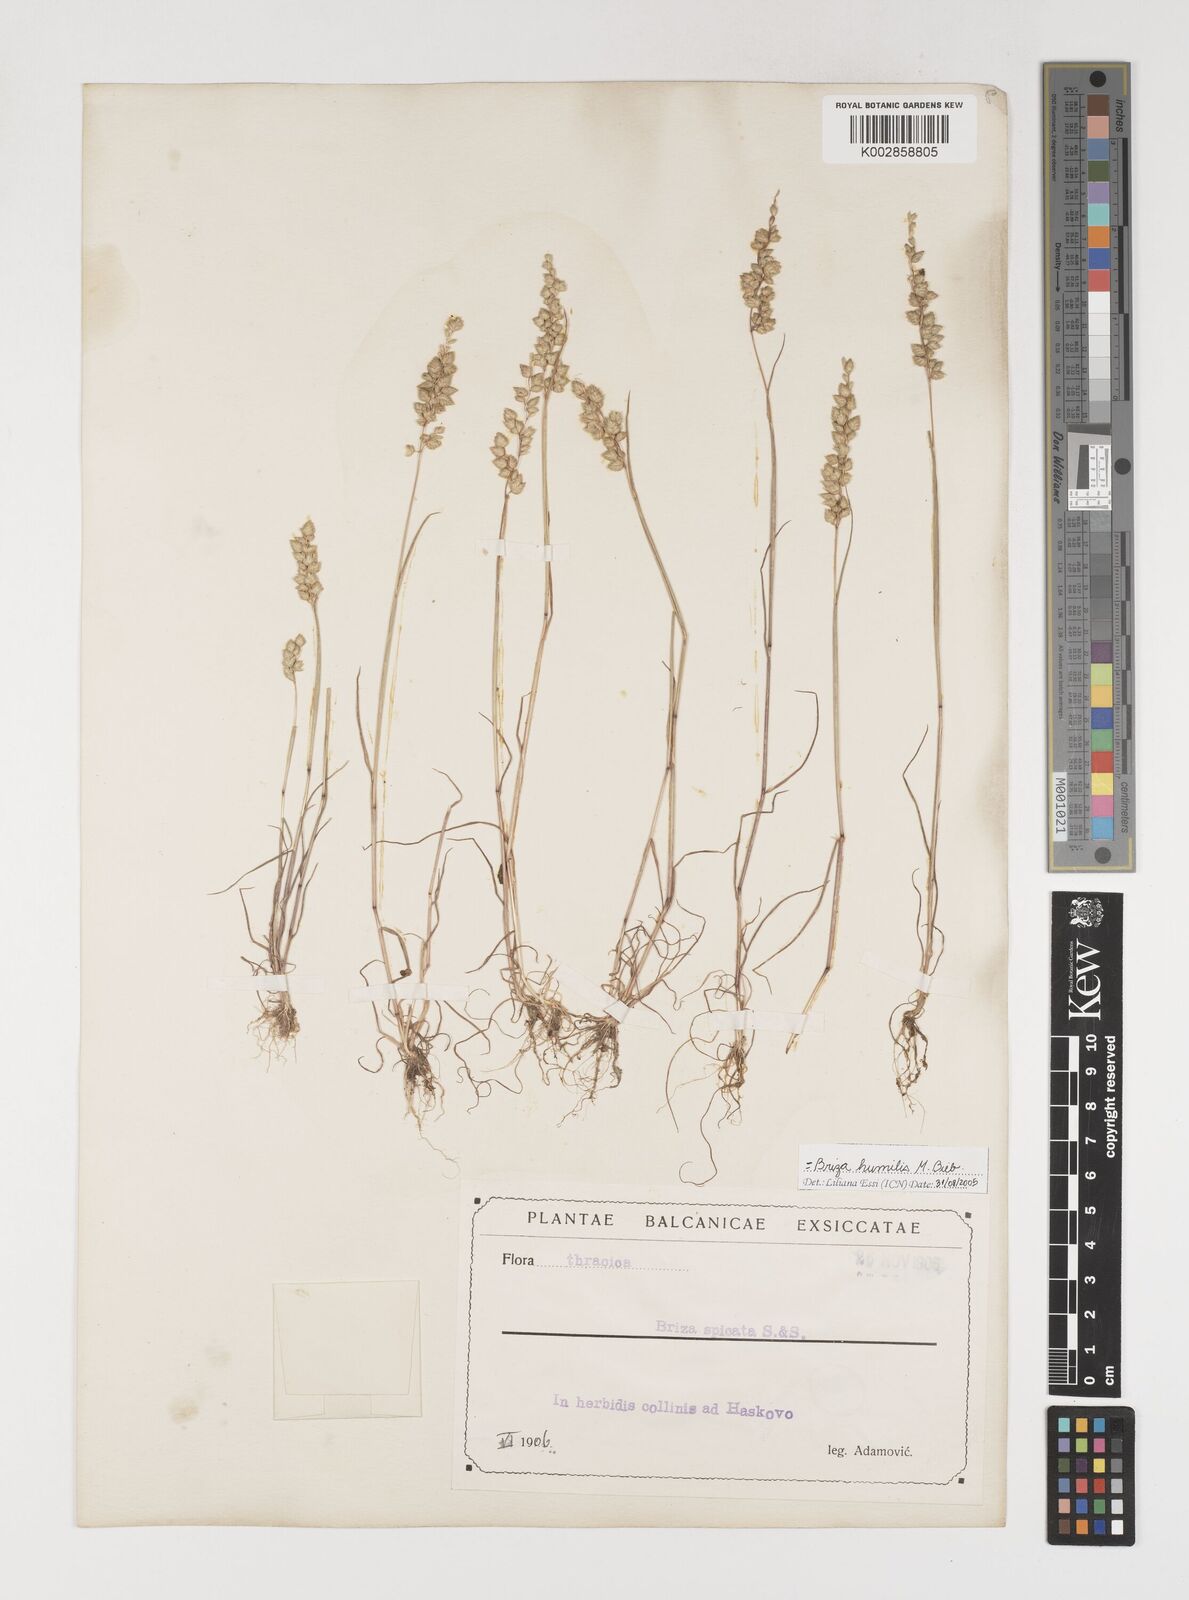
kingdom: Plantae
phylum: Tracheophyta
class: Liliopsida
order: Poales
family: Poaceae
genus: Briza
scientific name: Briza humilis
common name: Spiked quaking grass
